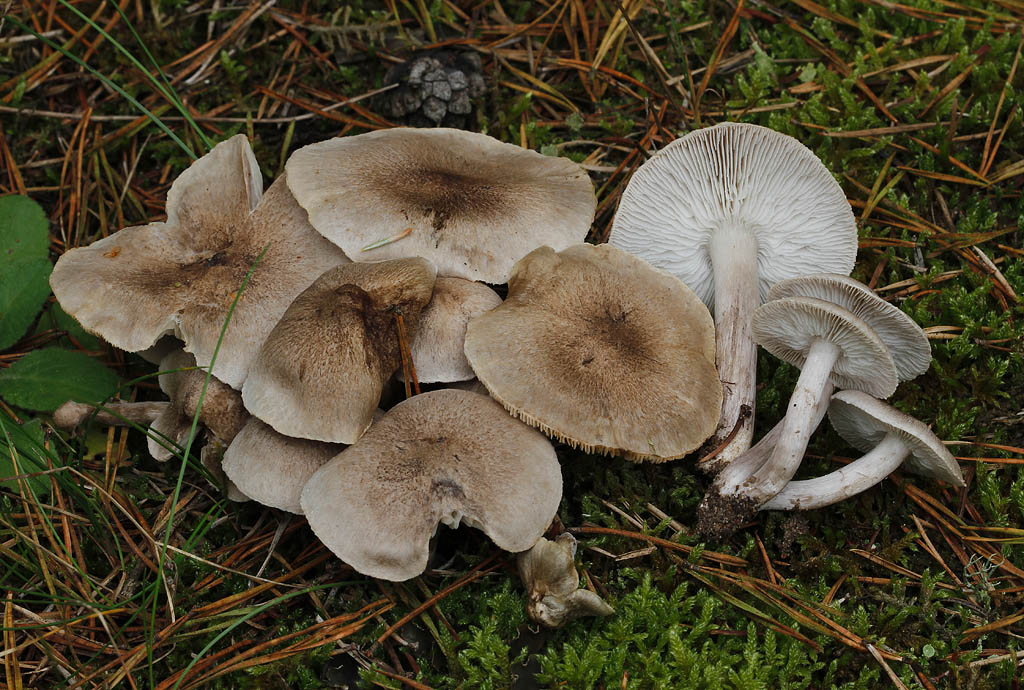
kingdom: Fungi
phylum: Basidiomycota
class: Agaricomycetes
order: Agaricales
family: Tricholomataceae
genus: Tricholoma
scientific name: Tricholoma argyraceum
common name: slør-ridderhat
